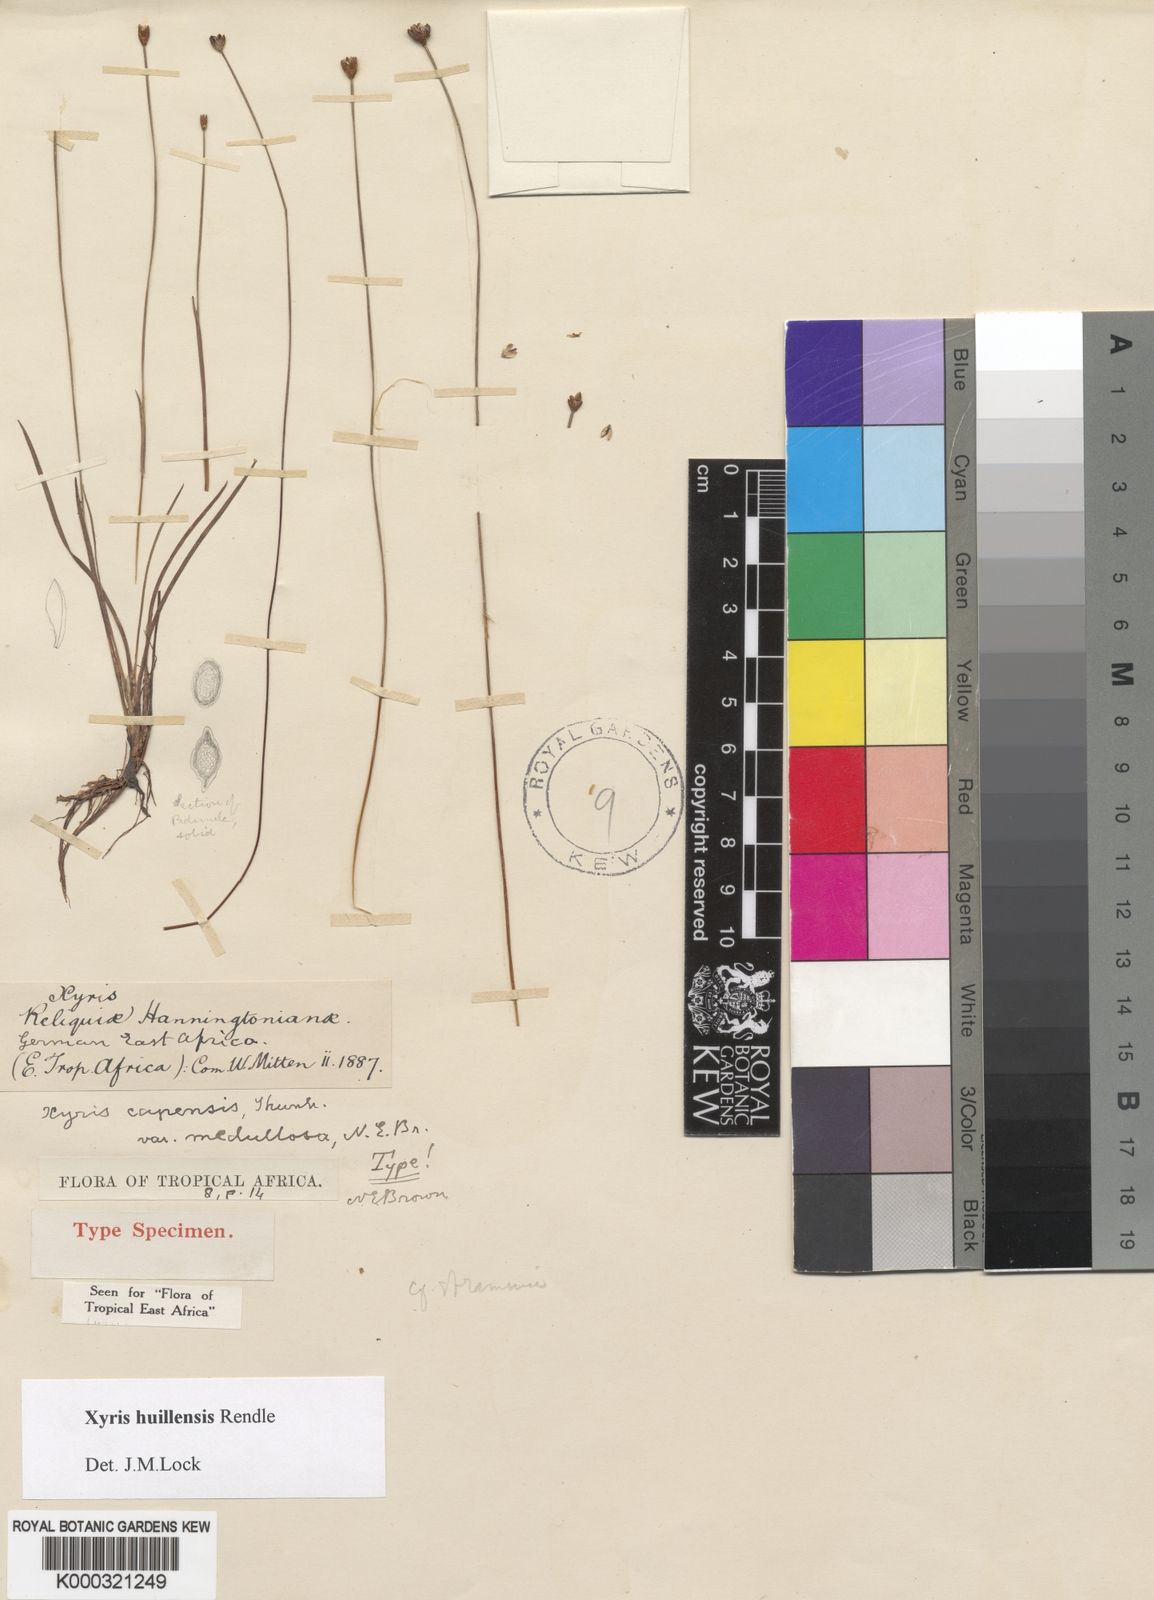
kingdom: Plantae
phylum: Tracheophyta
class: Liliopsida
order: Poales
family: Xyridaceae
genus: Xyris
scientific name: Xyris huillensis
